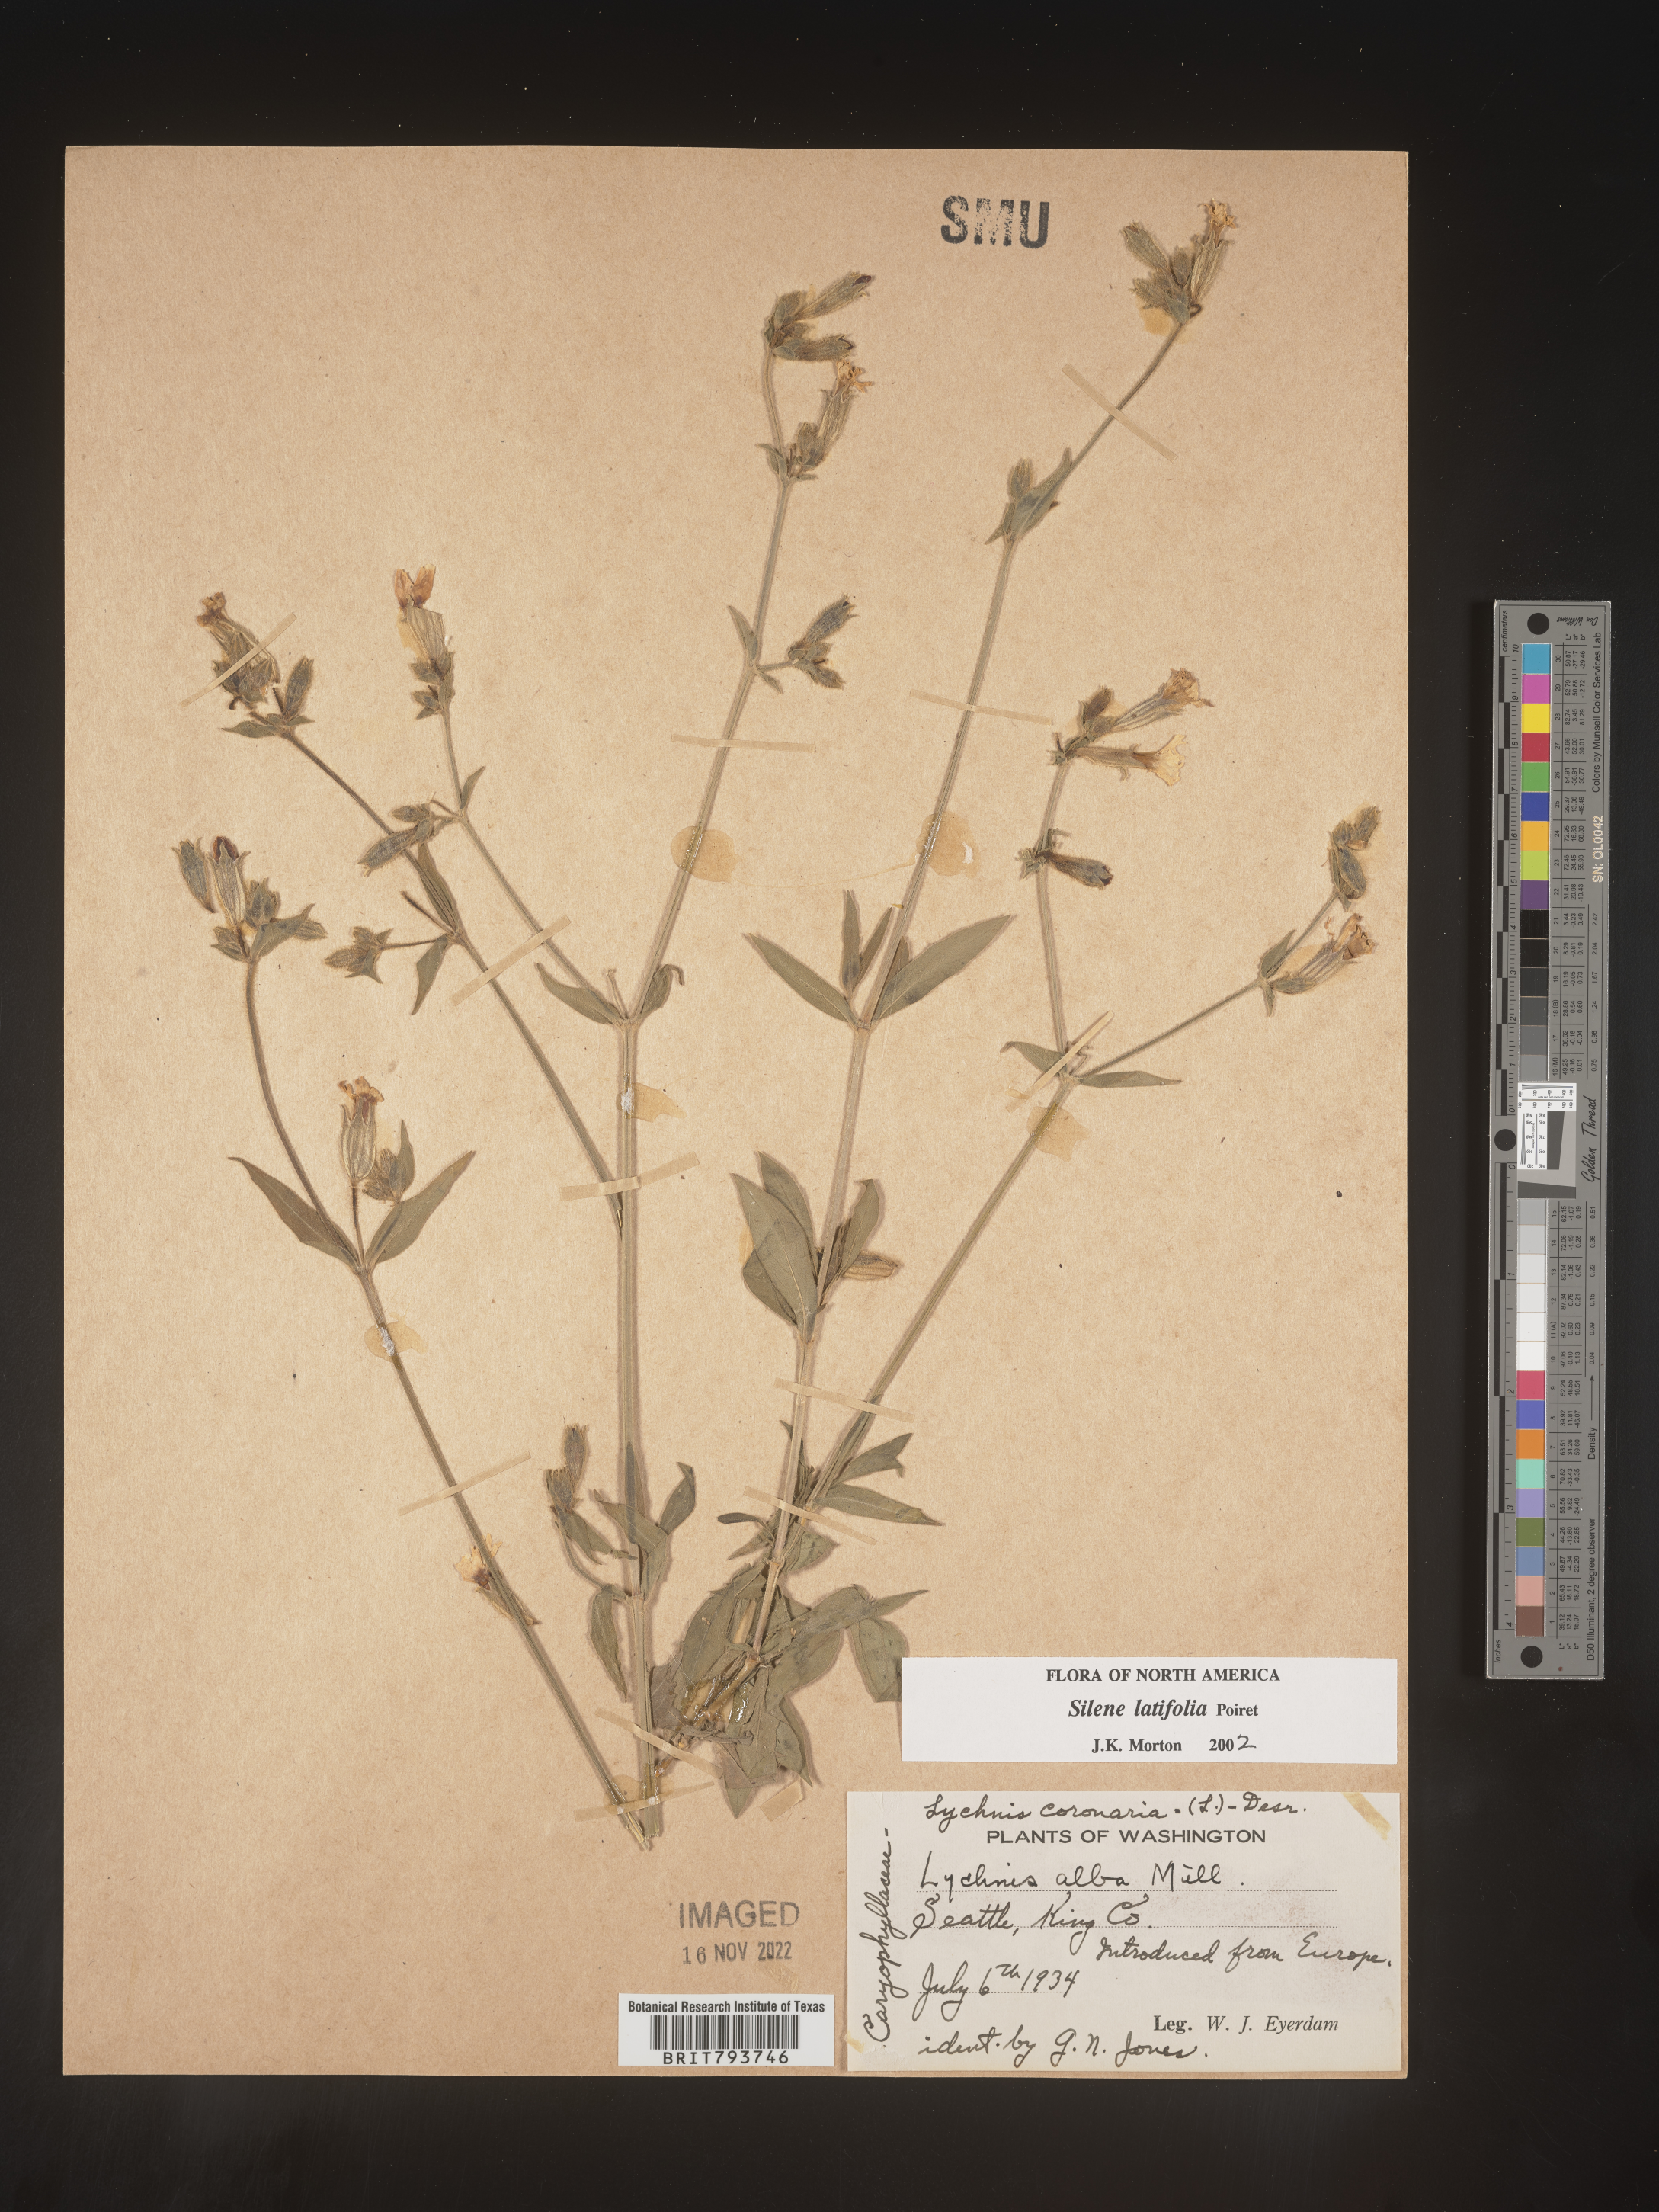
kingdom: Plantae
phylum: Tracheophyta
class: Magnoliopsida
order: Caryophyllales
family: Caryophyllaceae
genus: Silene
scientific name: Silene latifolia
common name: White campion
